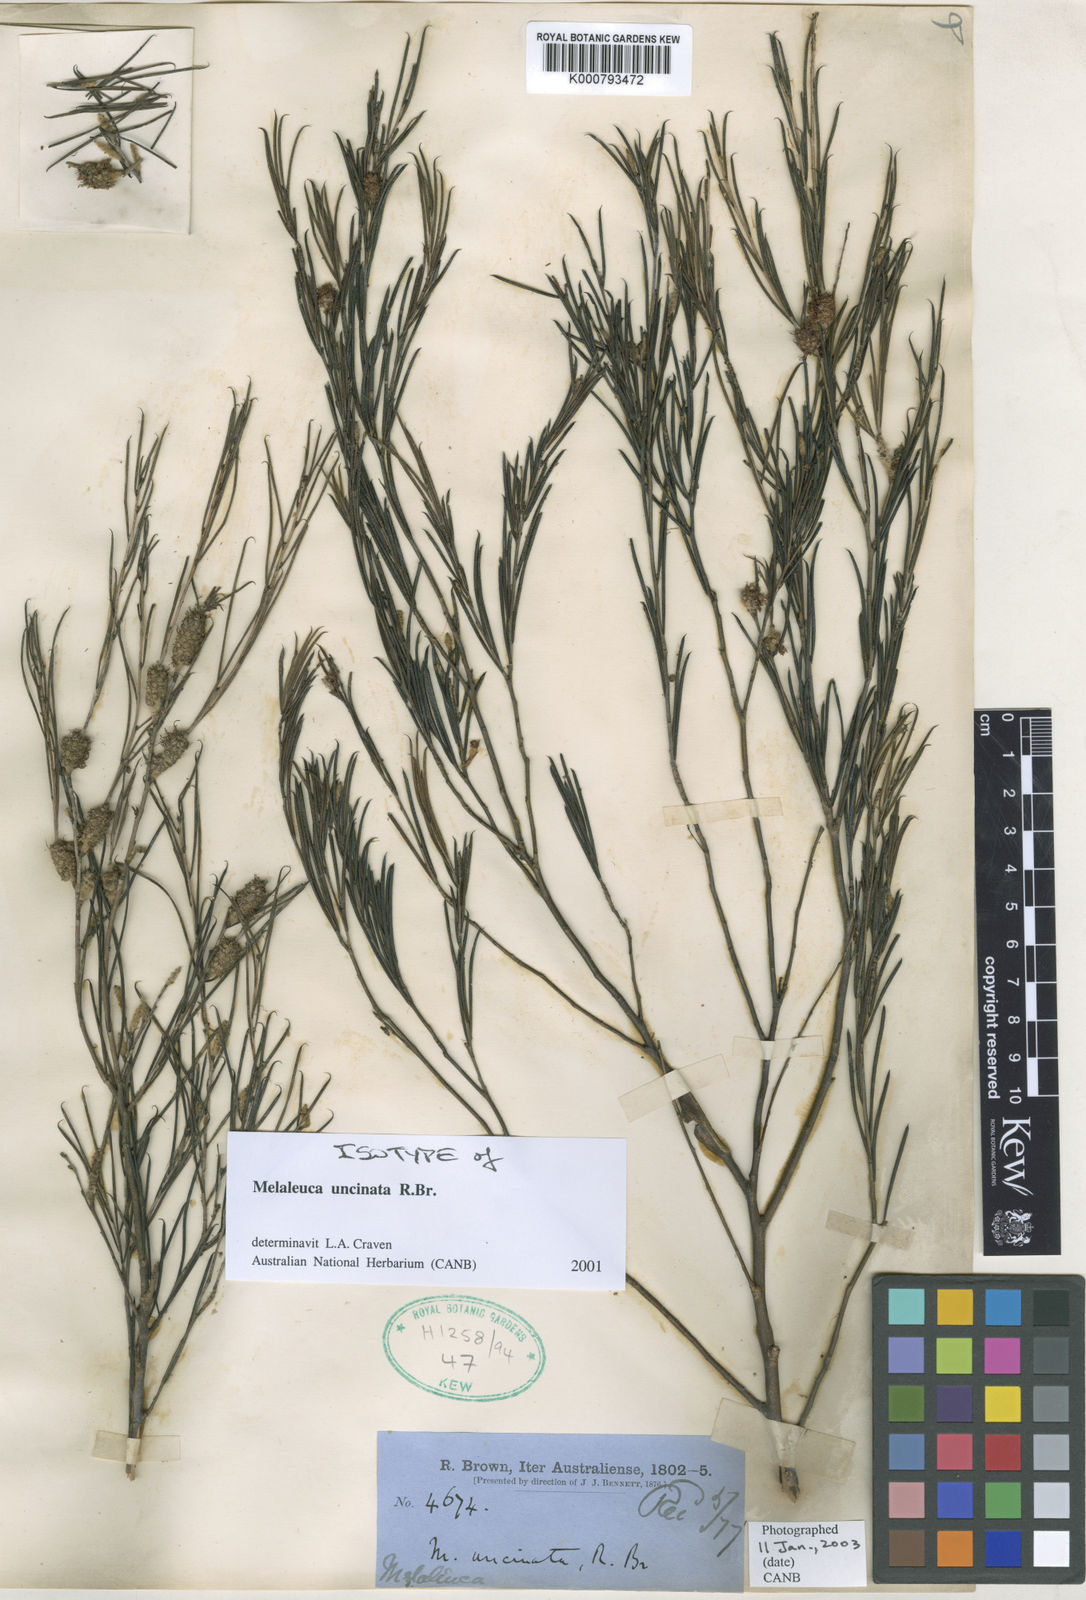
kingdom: Plantae
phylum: Tracheophyta
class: Magnoliopsida
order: Myrtales
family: Myrtaceae
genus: Melaleuca
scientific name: Melaleuca uncinata
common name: Broom honey myrtle
